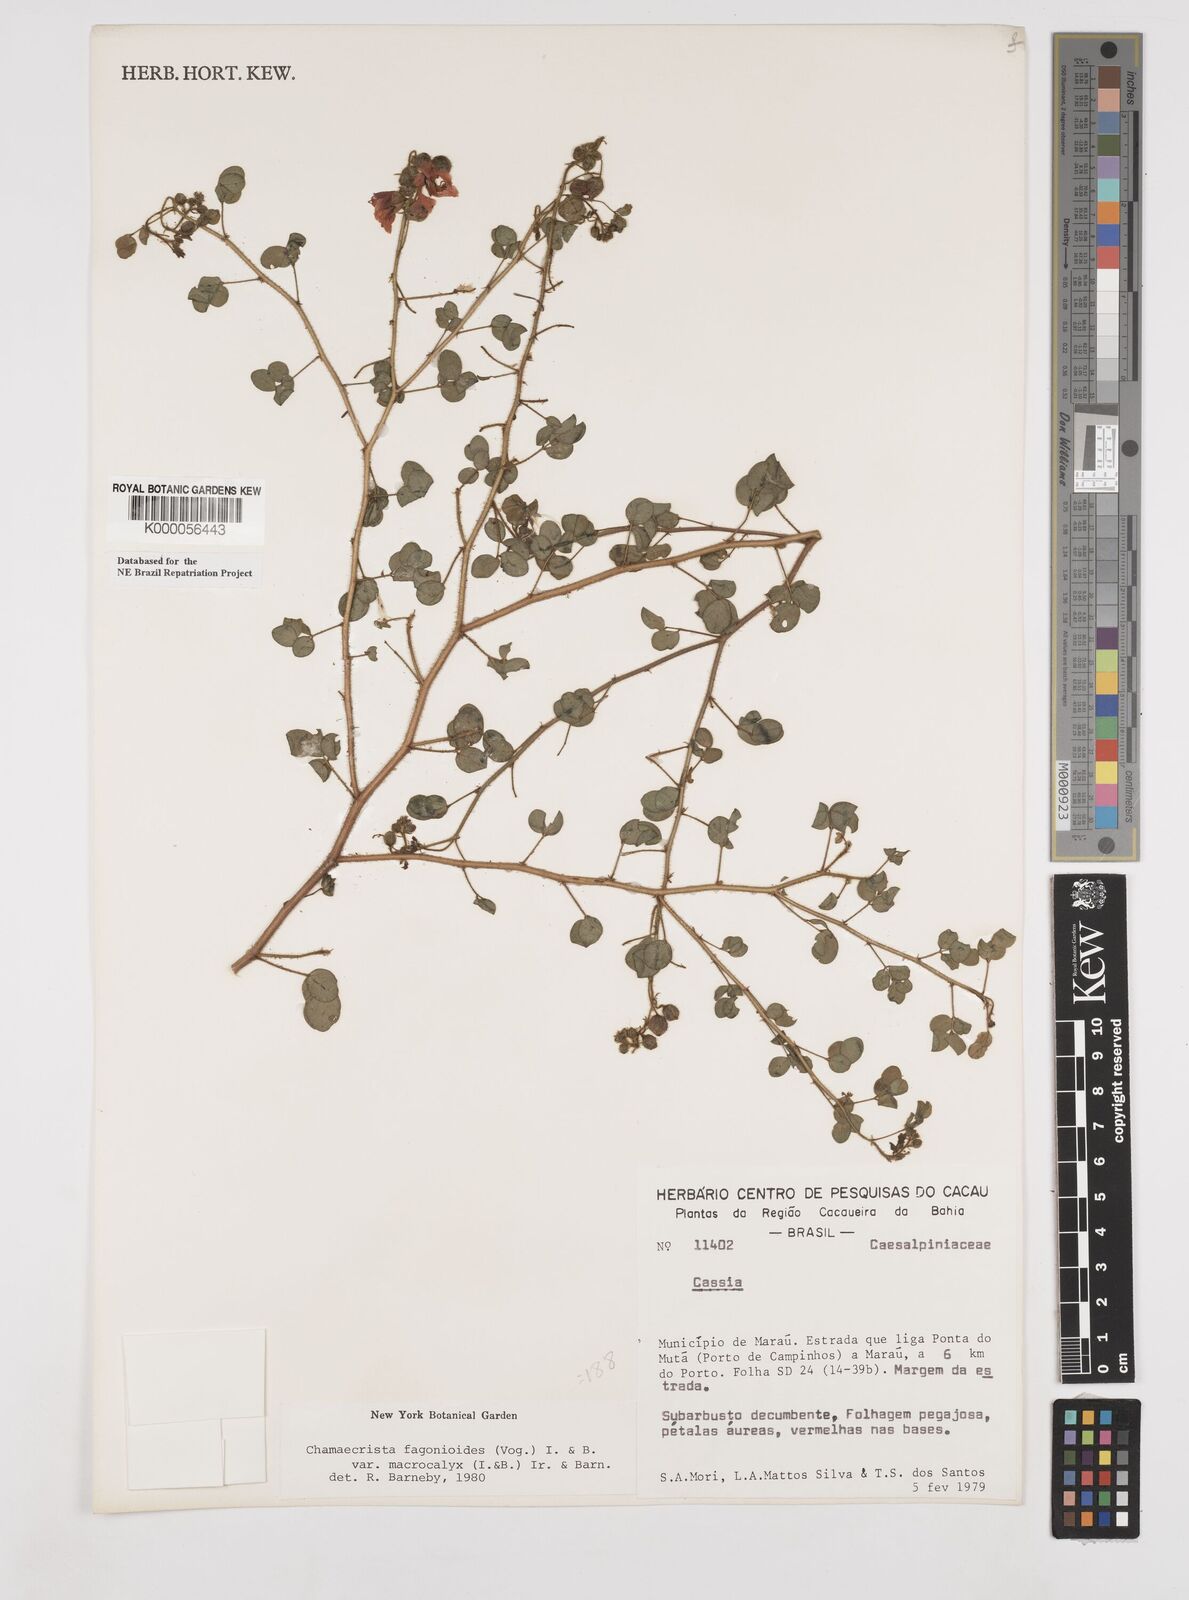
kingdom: Plantae
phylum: Tracheophyta
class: Magnoliopsida
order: Fabales
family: Fabaceae
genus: Chamaecrista
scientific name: Chamaecrista fagonioides
